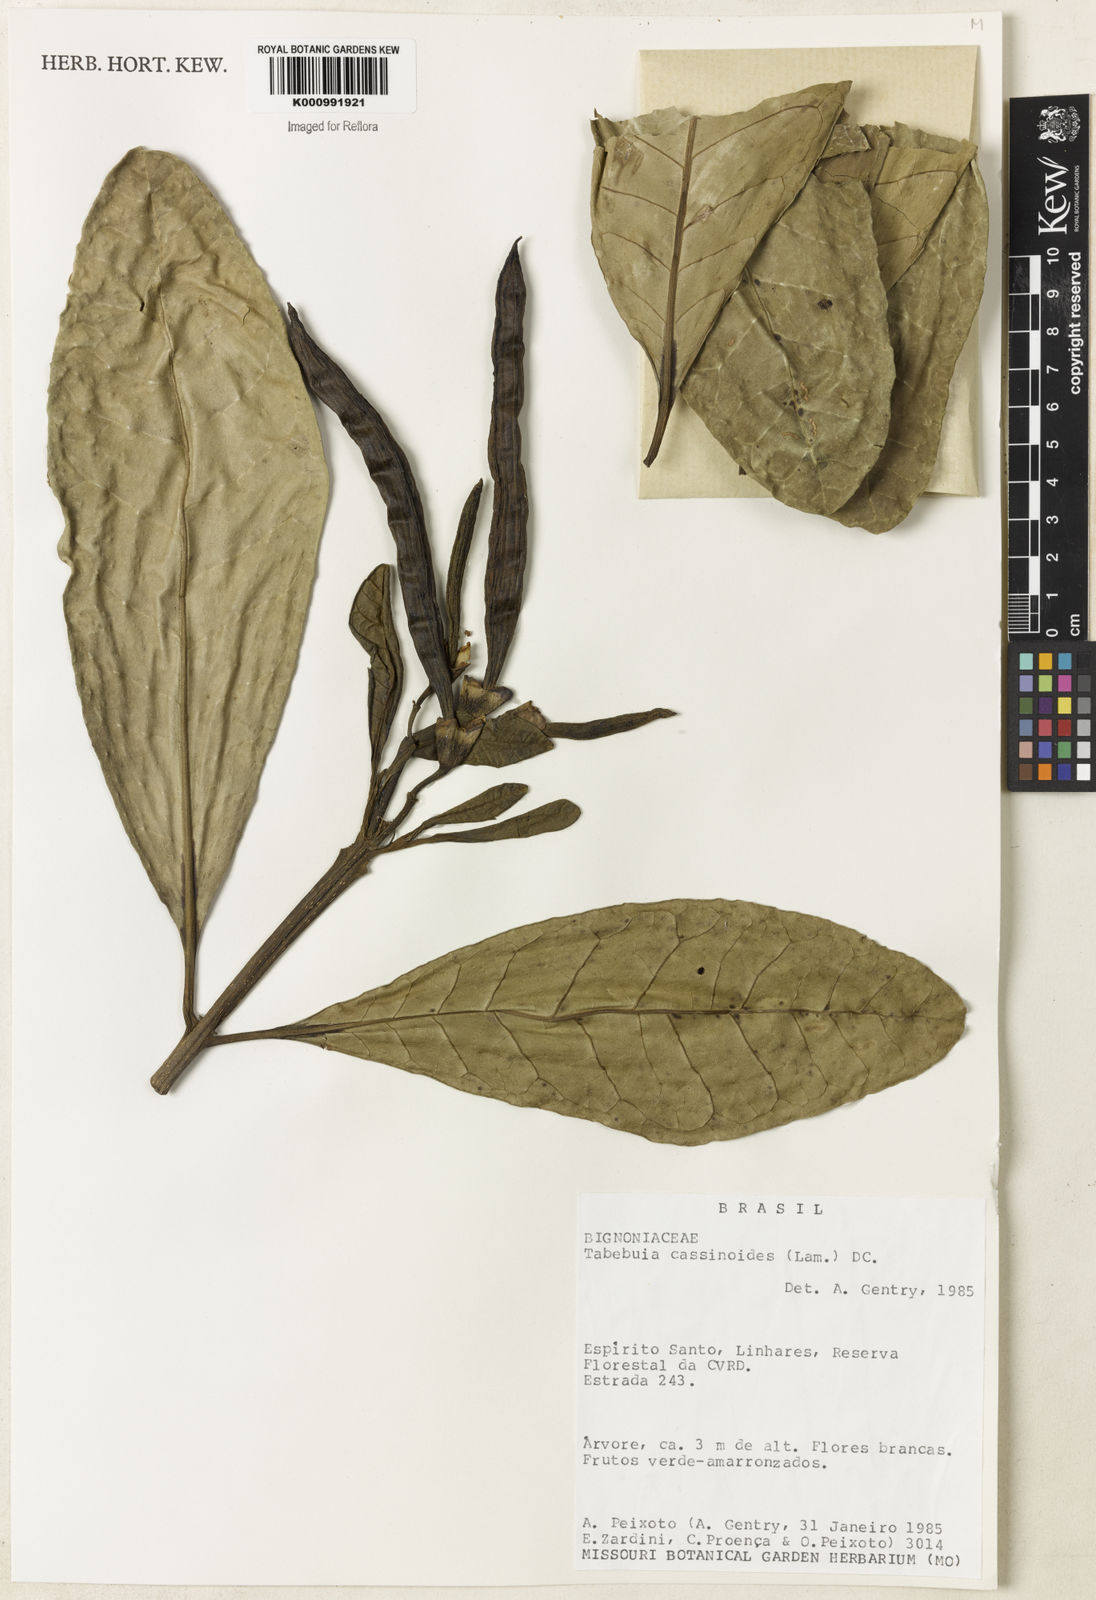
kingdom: Plantae
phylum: Tracheophyta
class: Magnoliopsida
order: Lamiales
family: Bignoniaceae
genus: Tabebuia
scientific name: Tabebuia cassinoides
